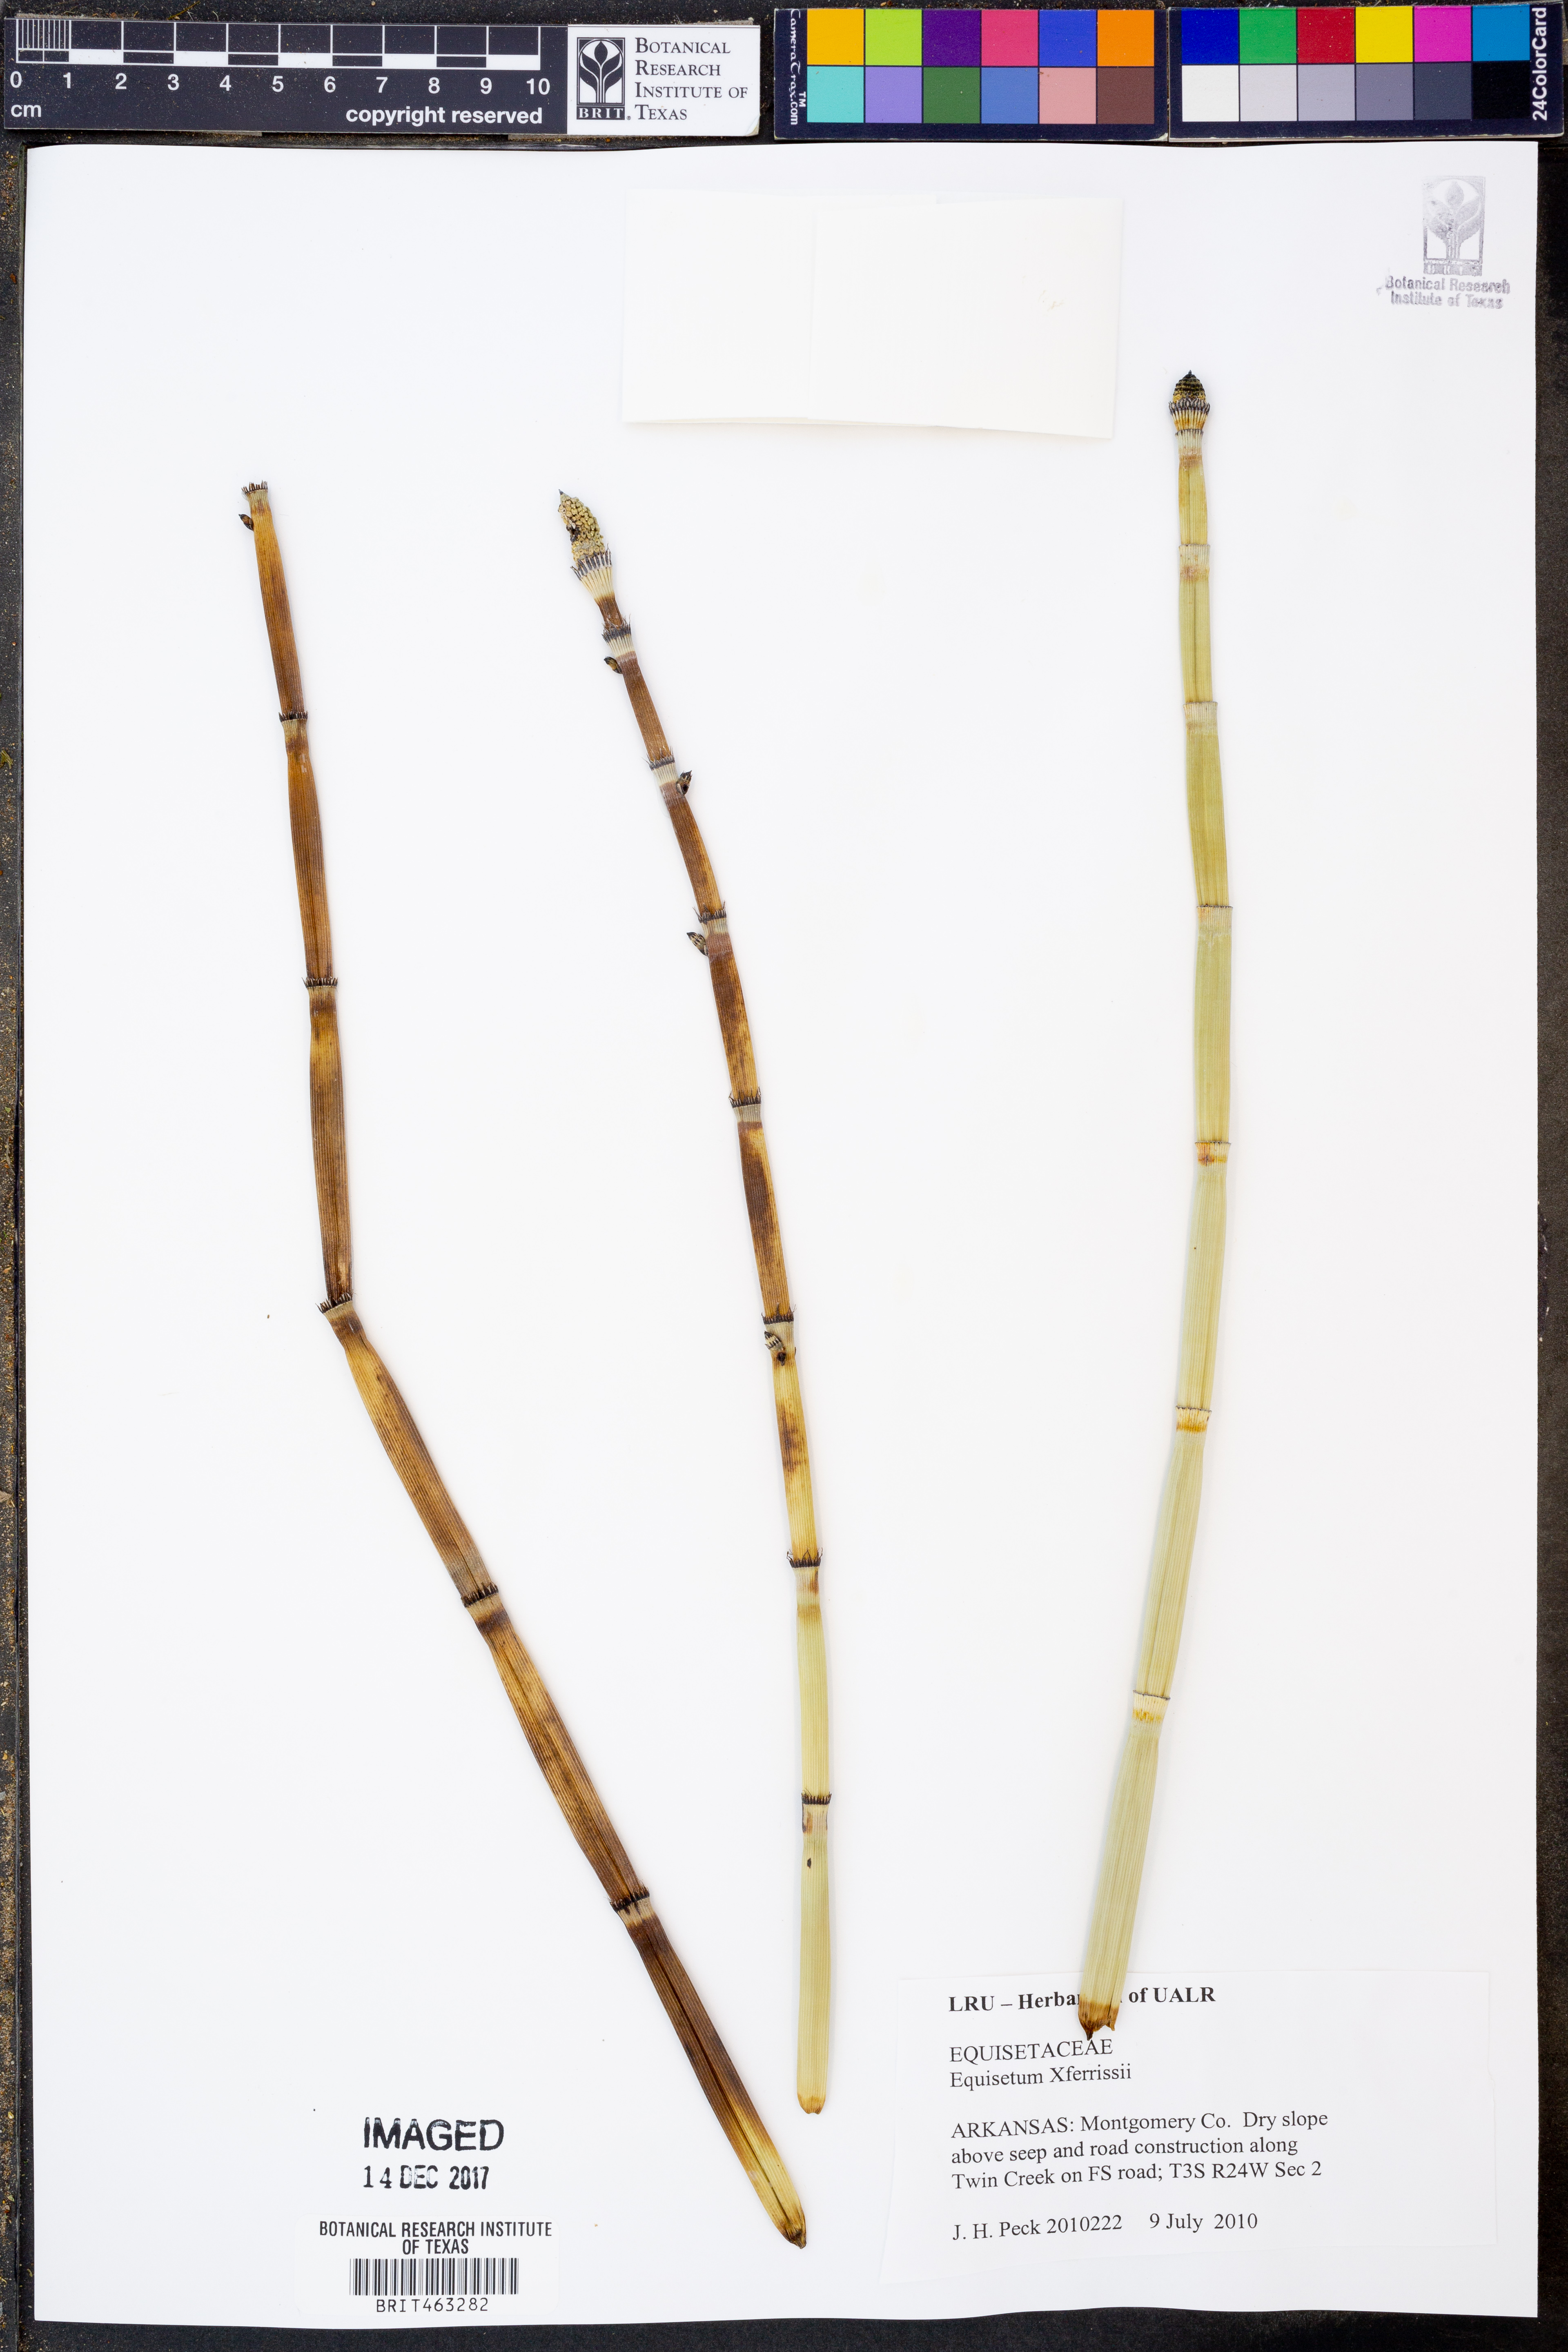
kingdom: Plantae
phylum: Tracheophyta
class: Polypodiopsida
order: Equisetales
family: Equisetaceae
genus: Equisetum
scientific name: Equisetum ferrissii
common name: Ferriss' horsetail
